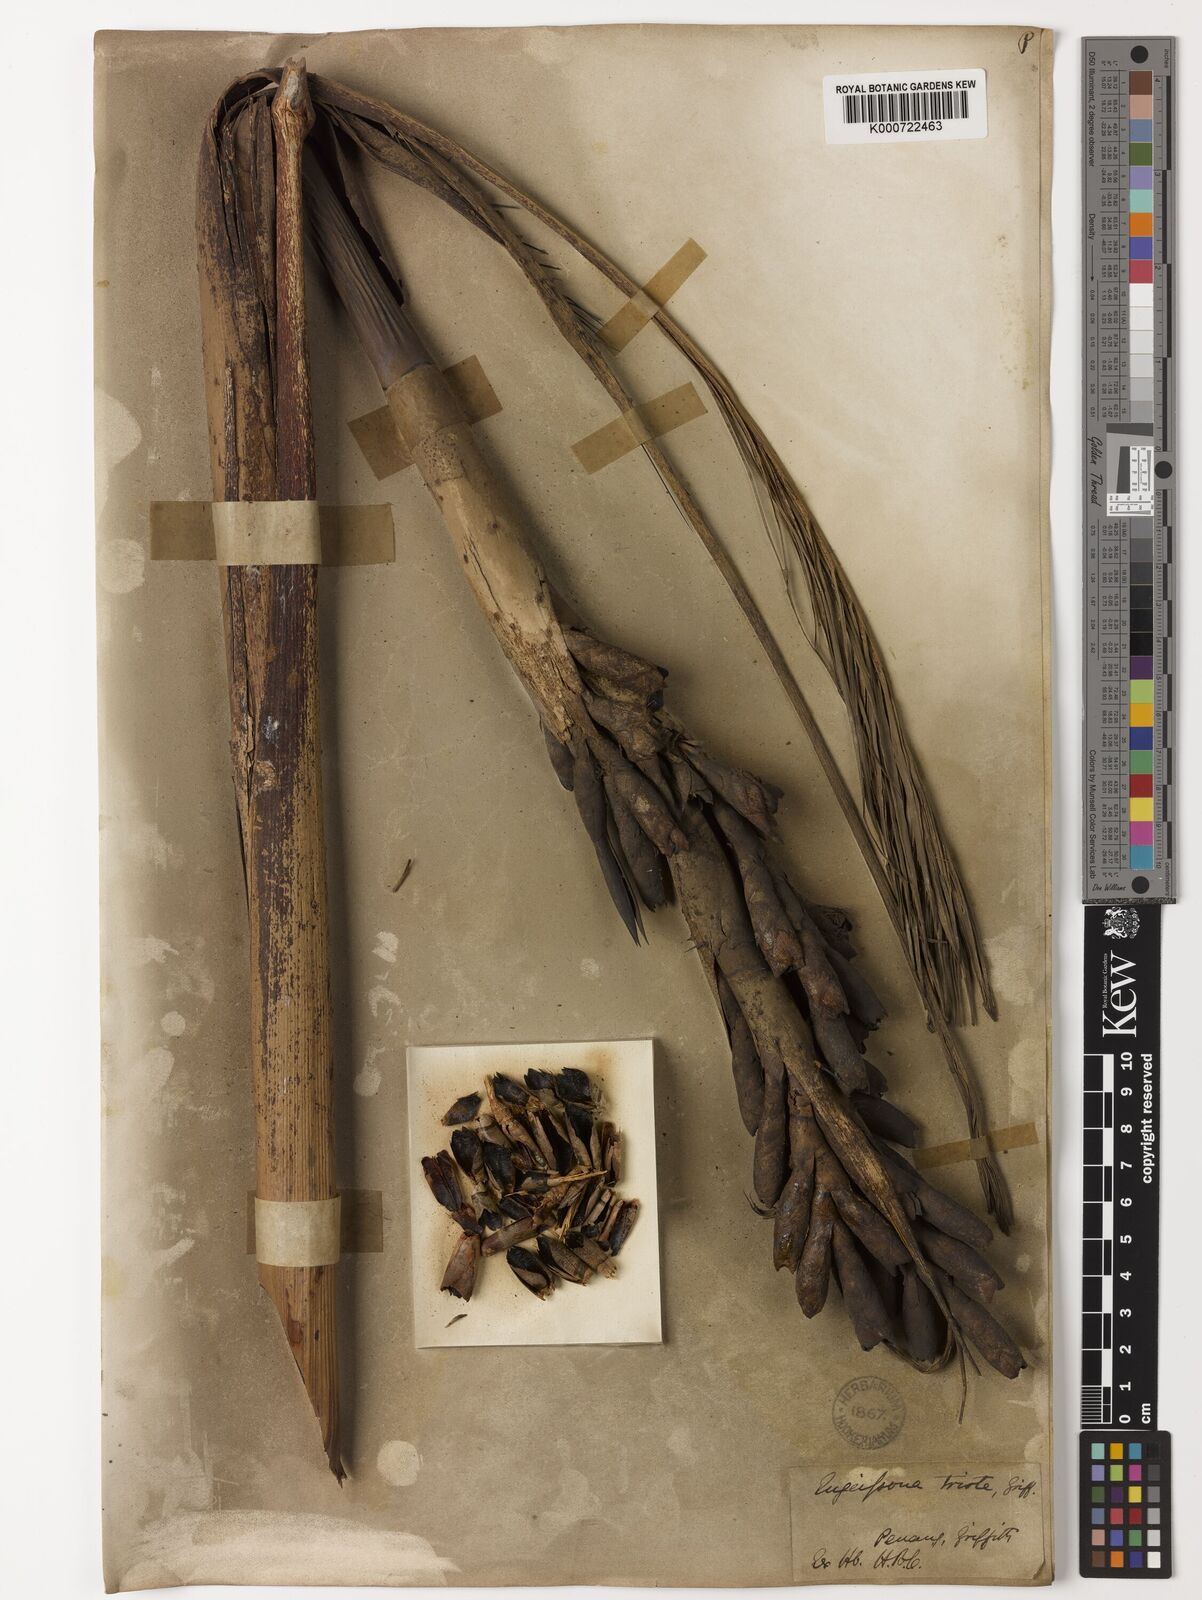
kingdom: Plantae
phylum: Tracheophyta
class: Liliopsida
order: Arecales
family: Arecaceae
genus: Eugeissona
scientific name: Eugeissona tristis
